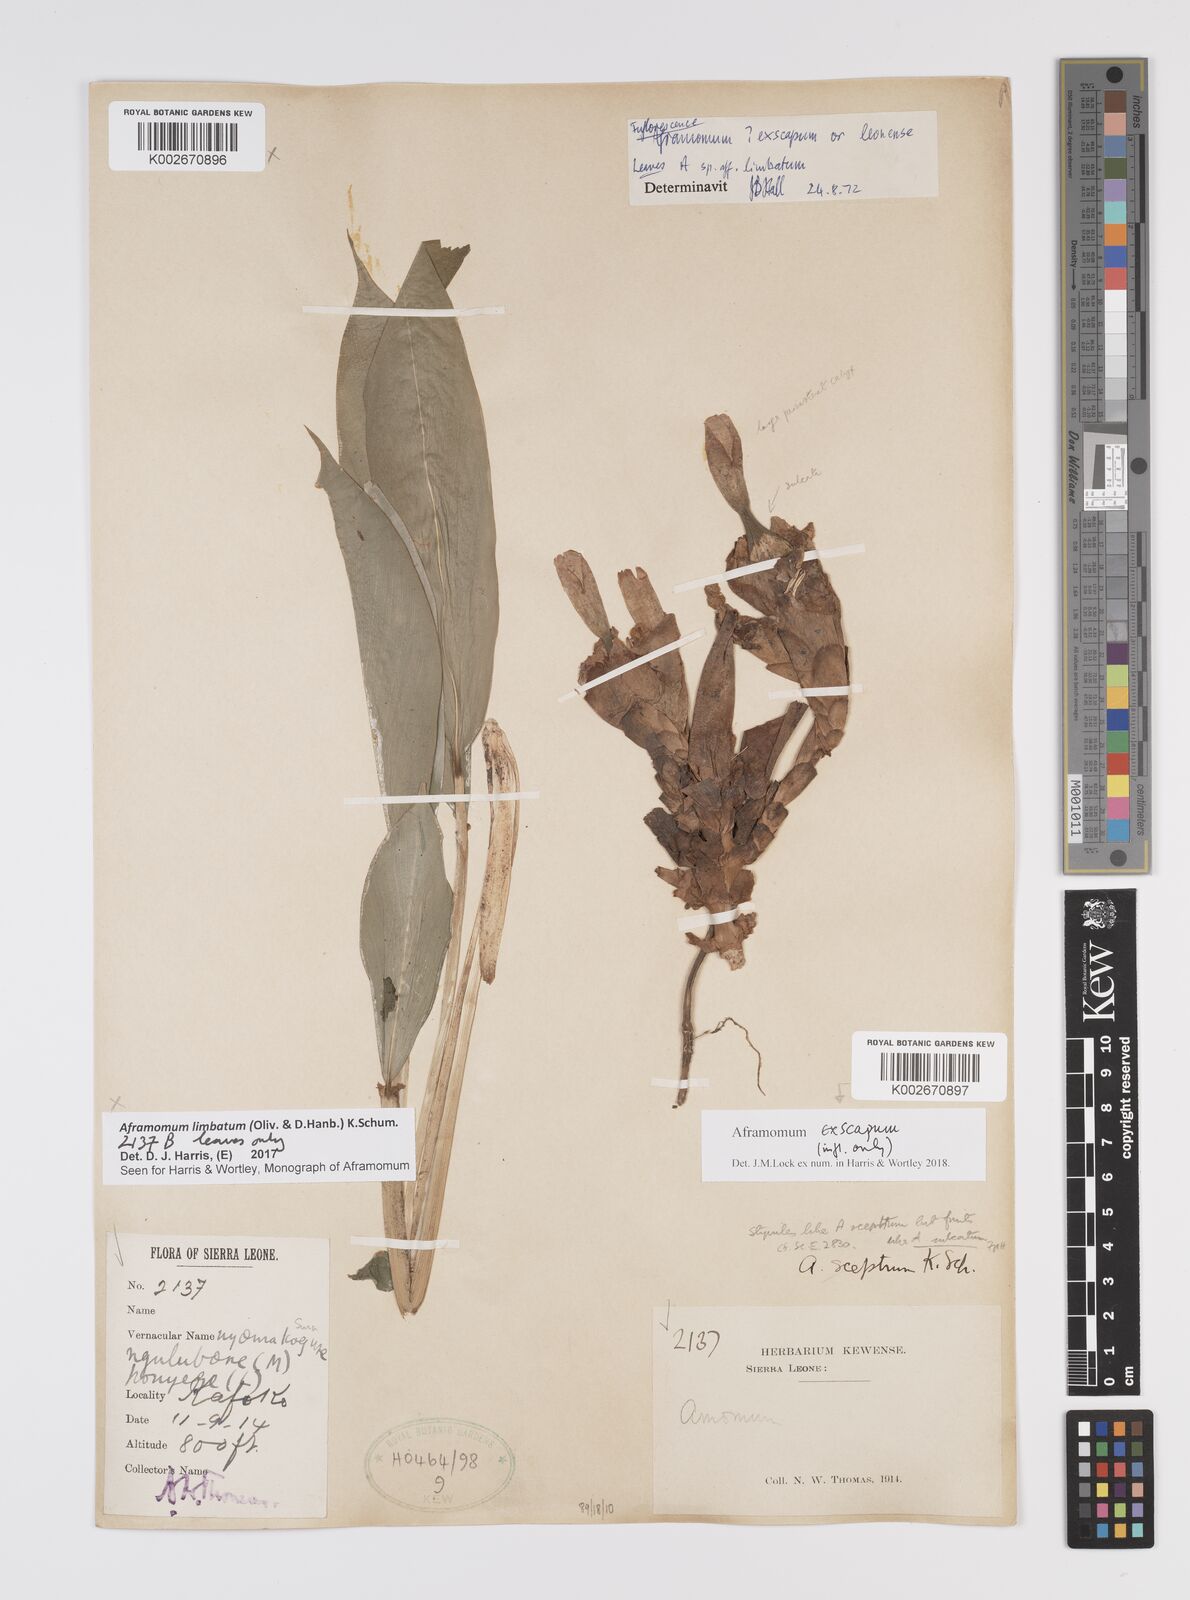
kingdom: Plantae
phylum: Tracheophyta
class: Liliopsida
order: Zingiberales
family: Zingiberaceae
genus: Aframomum
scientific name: Aframomum limbatum
